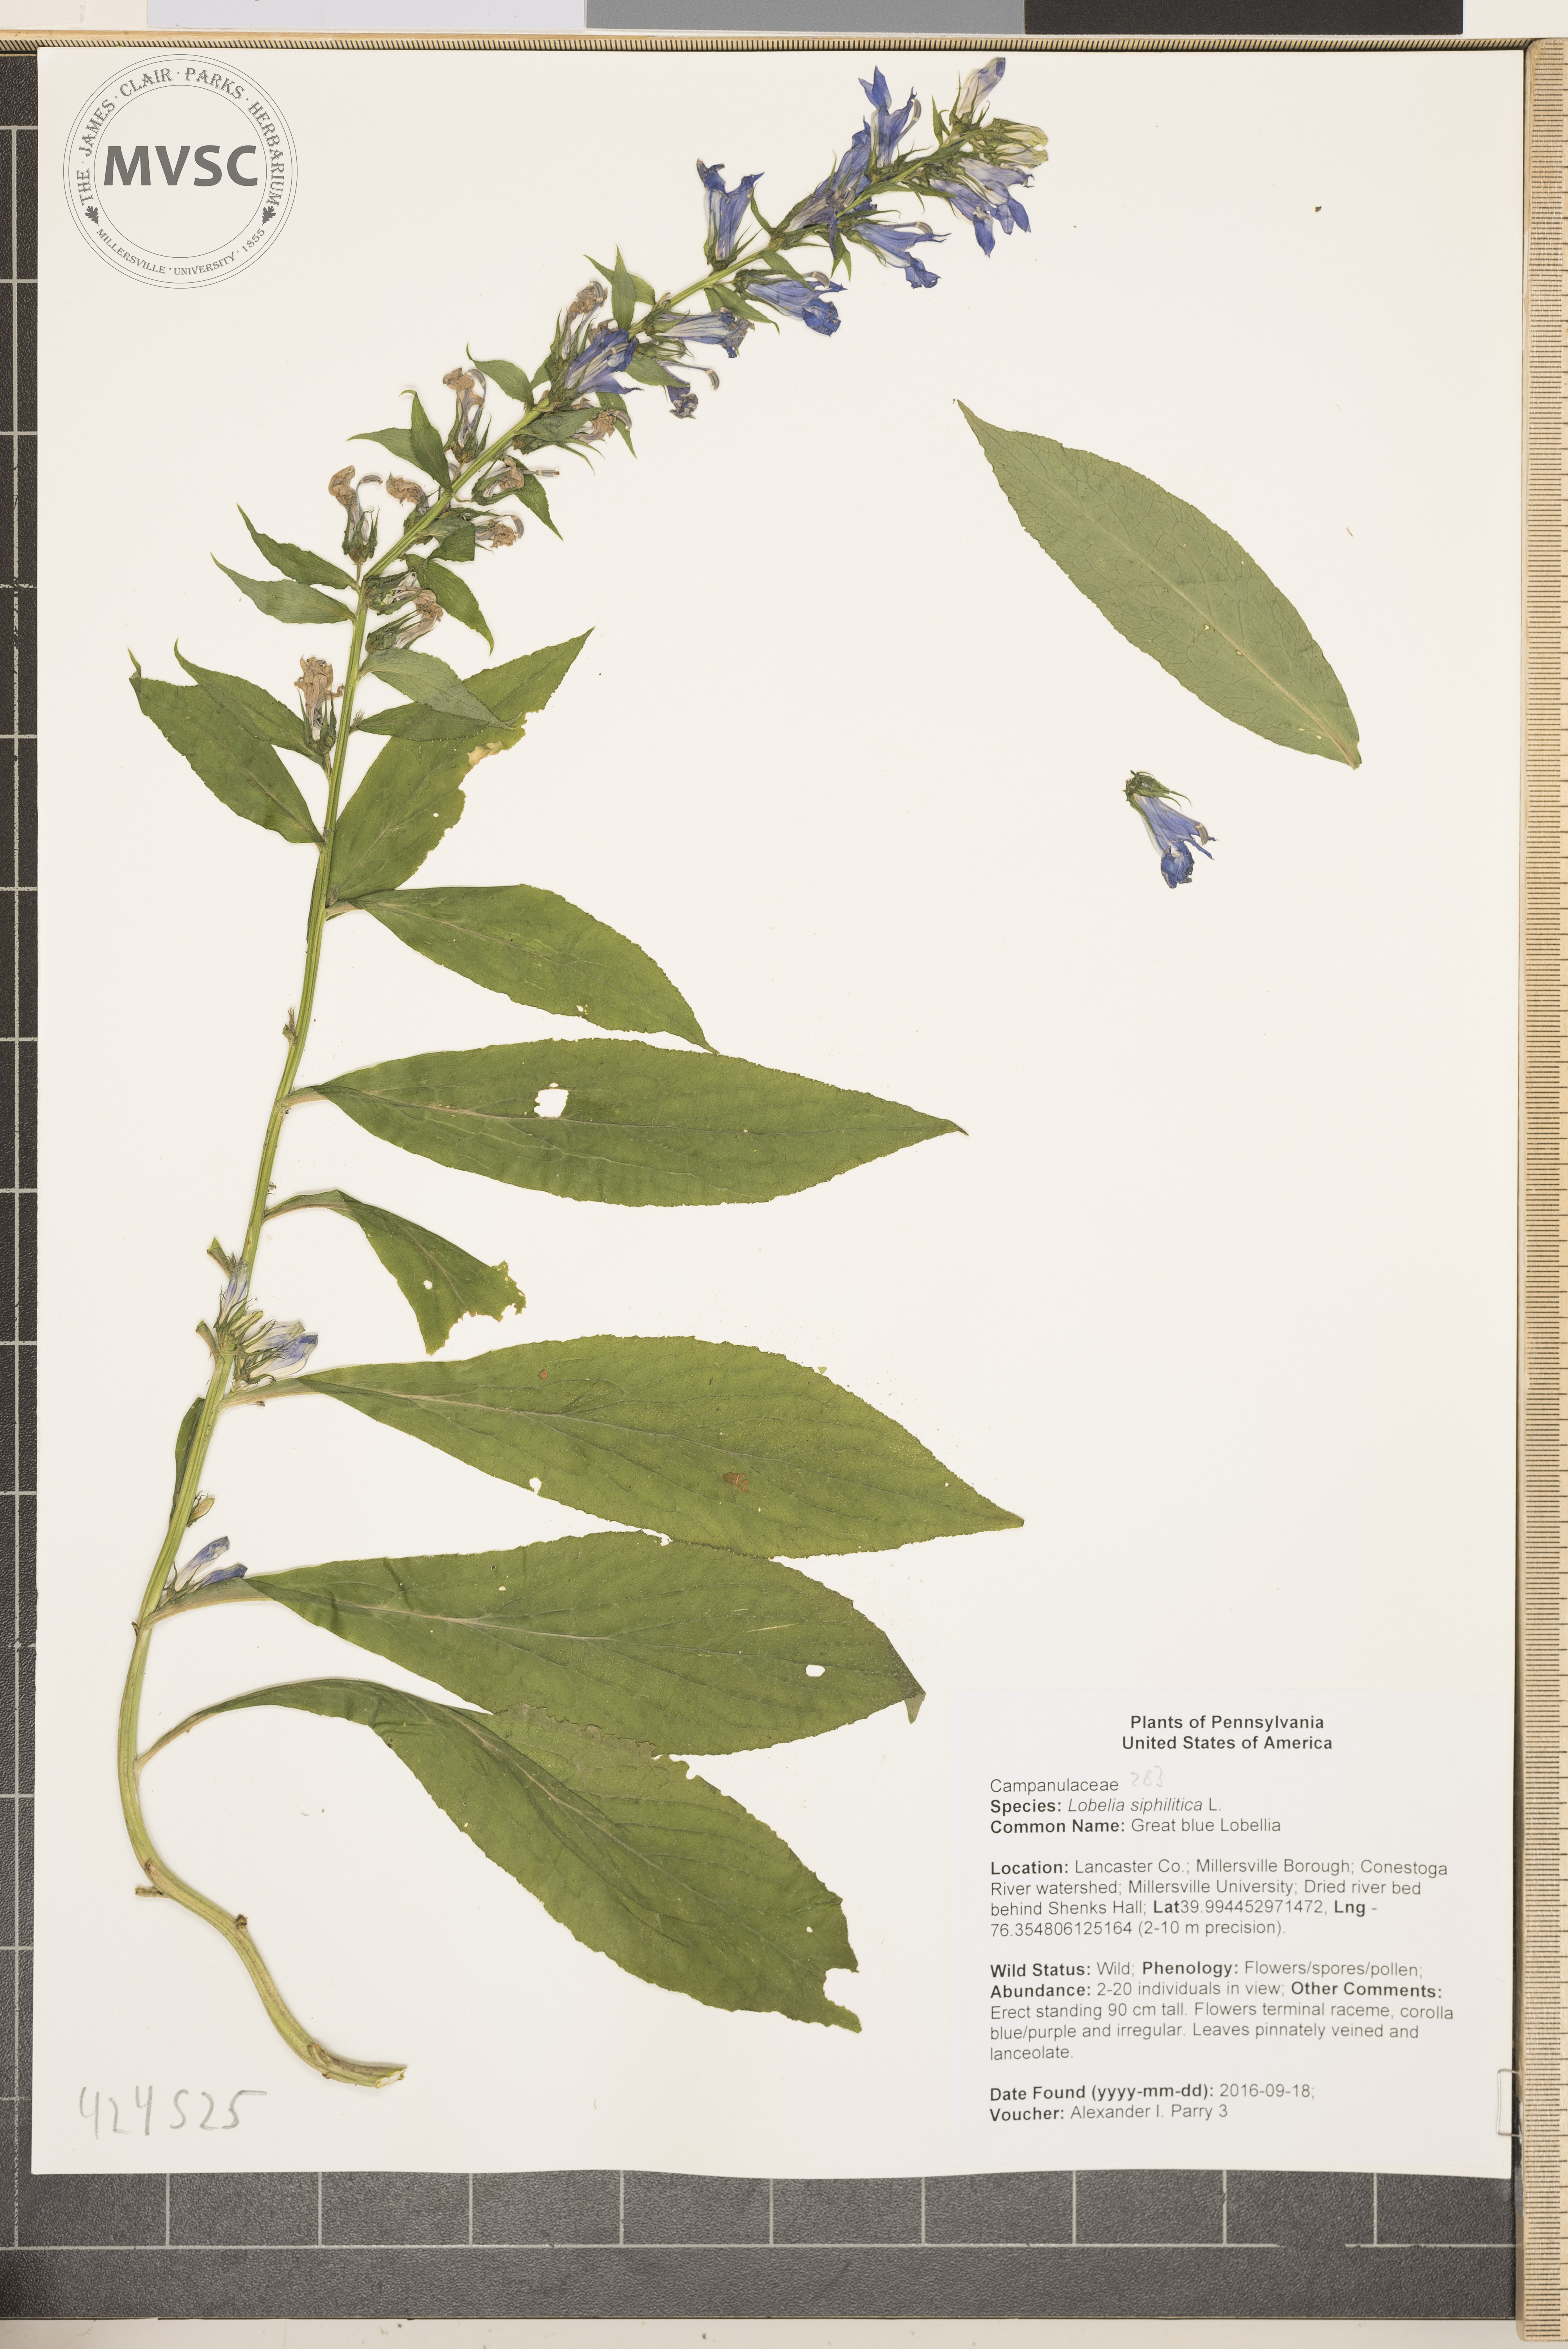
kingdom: Plantae
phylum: Tracheophyta
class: Magnoliopsida
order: Asterales
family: Campanulaceae
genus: Lobelia
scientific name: Lobelia siphilitica
